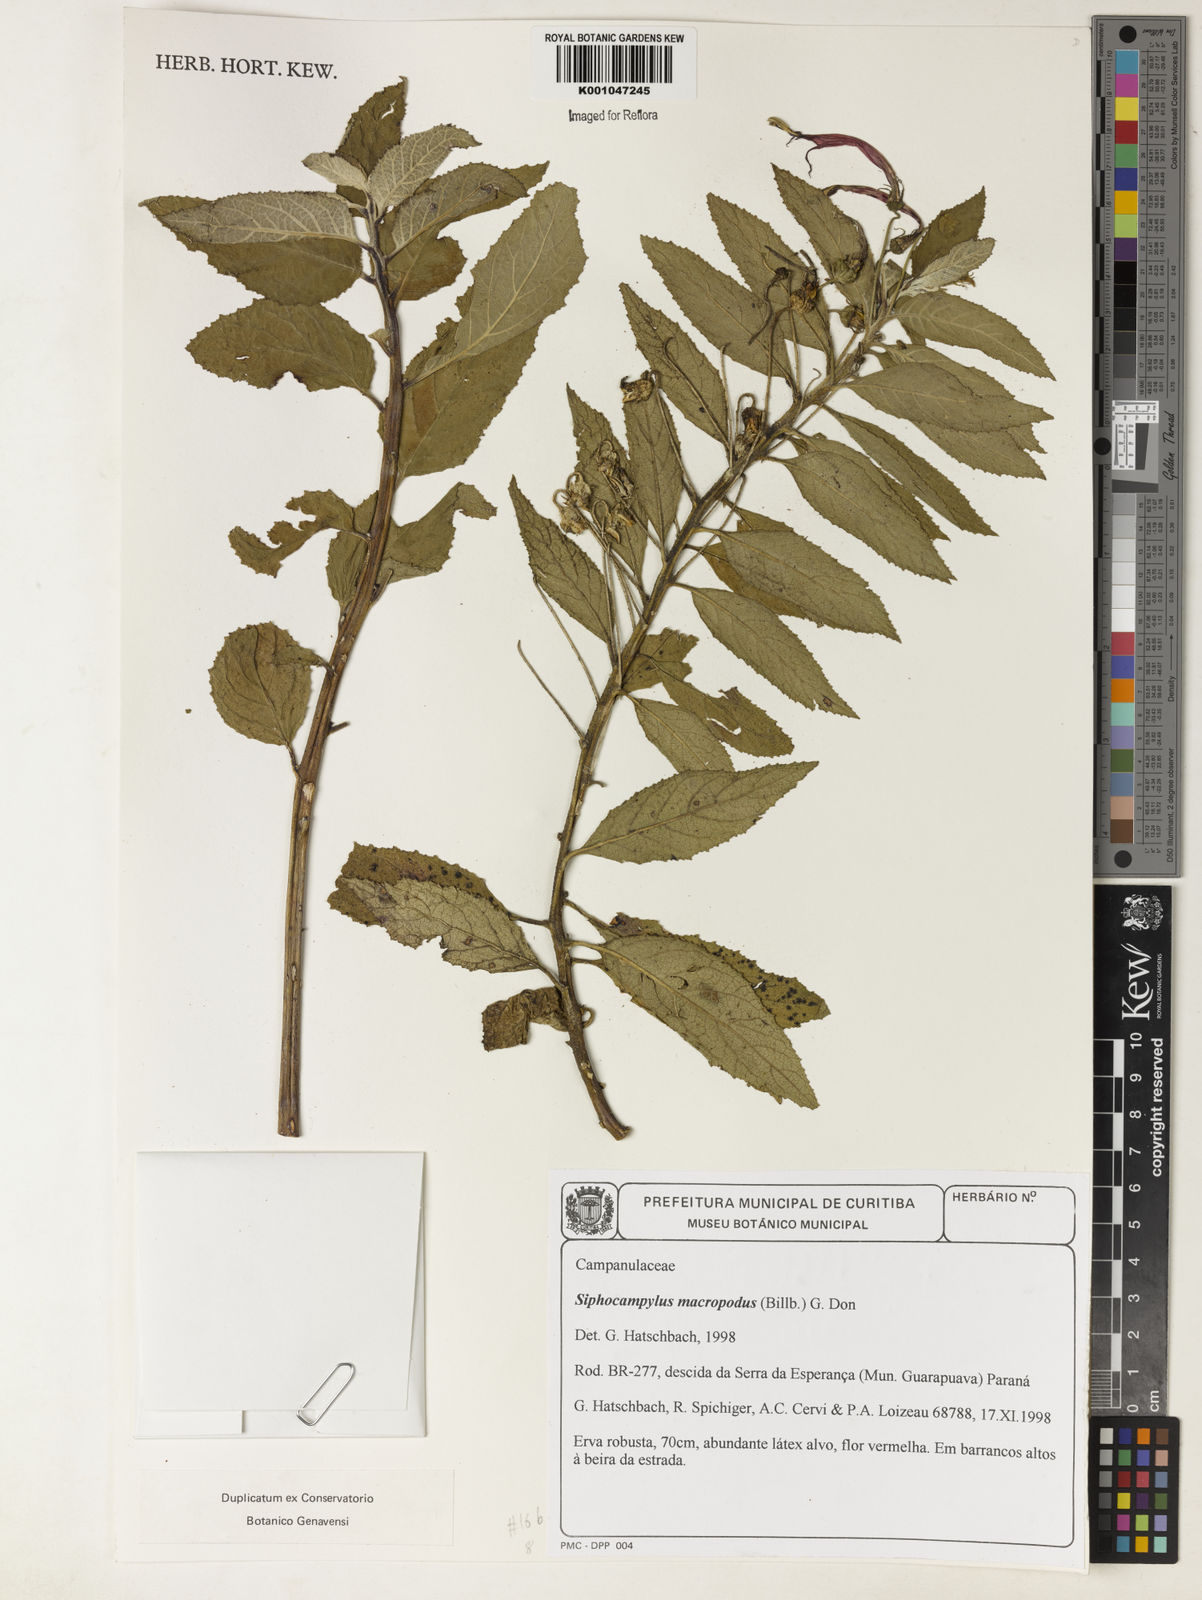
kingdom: Plantae
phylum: Tracheophyta
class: Magnoliopsida
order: Asterales
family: Campanulaceae
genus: Siphocampylus
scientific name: Siphocampylus macropodus
